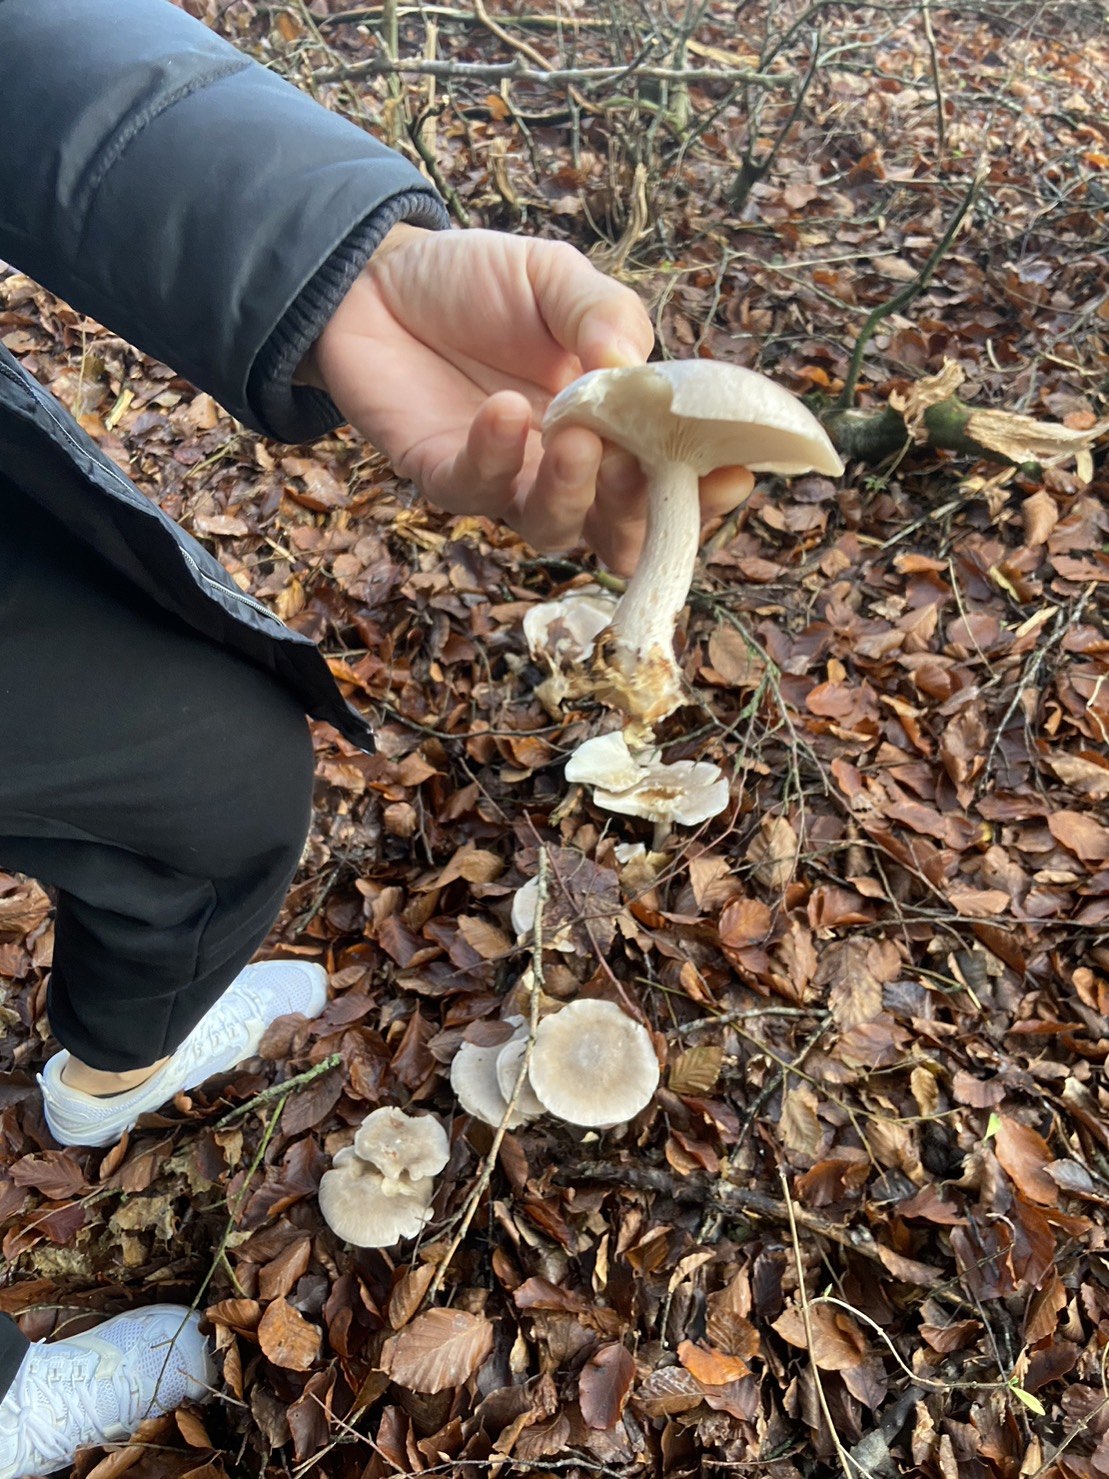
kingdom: Fungi
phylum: Basidiomycota
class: Agaricomycetes
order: Agaricales
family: Tricholomataceae
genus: Clitocybe
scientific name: Clitocybe nebularis
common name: tåge-tragthat
